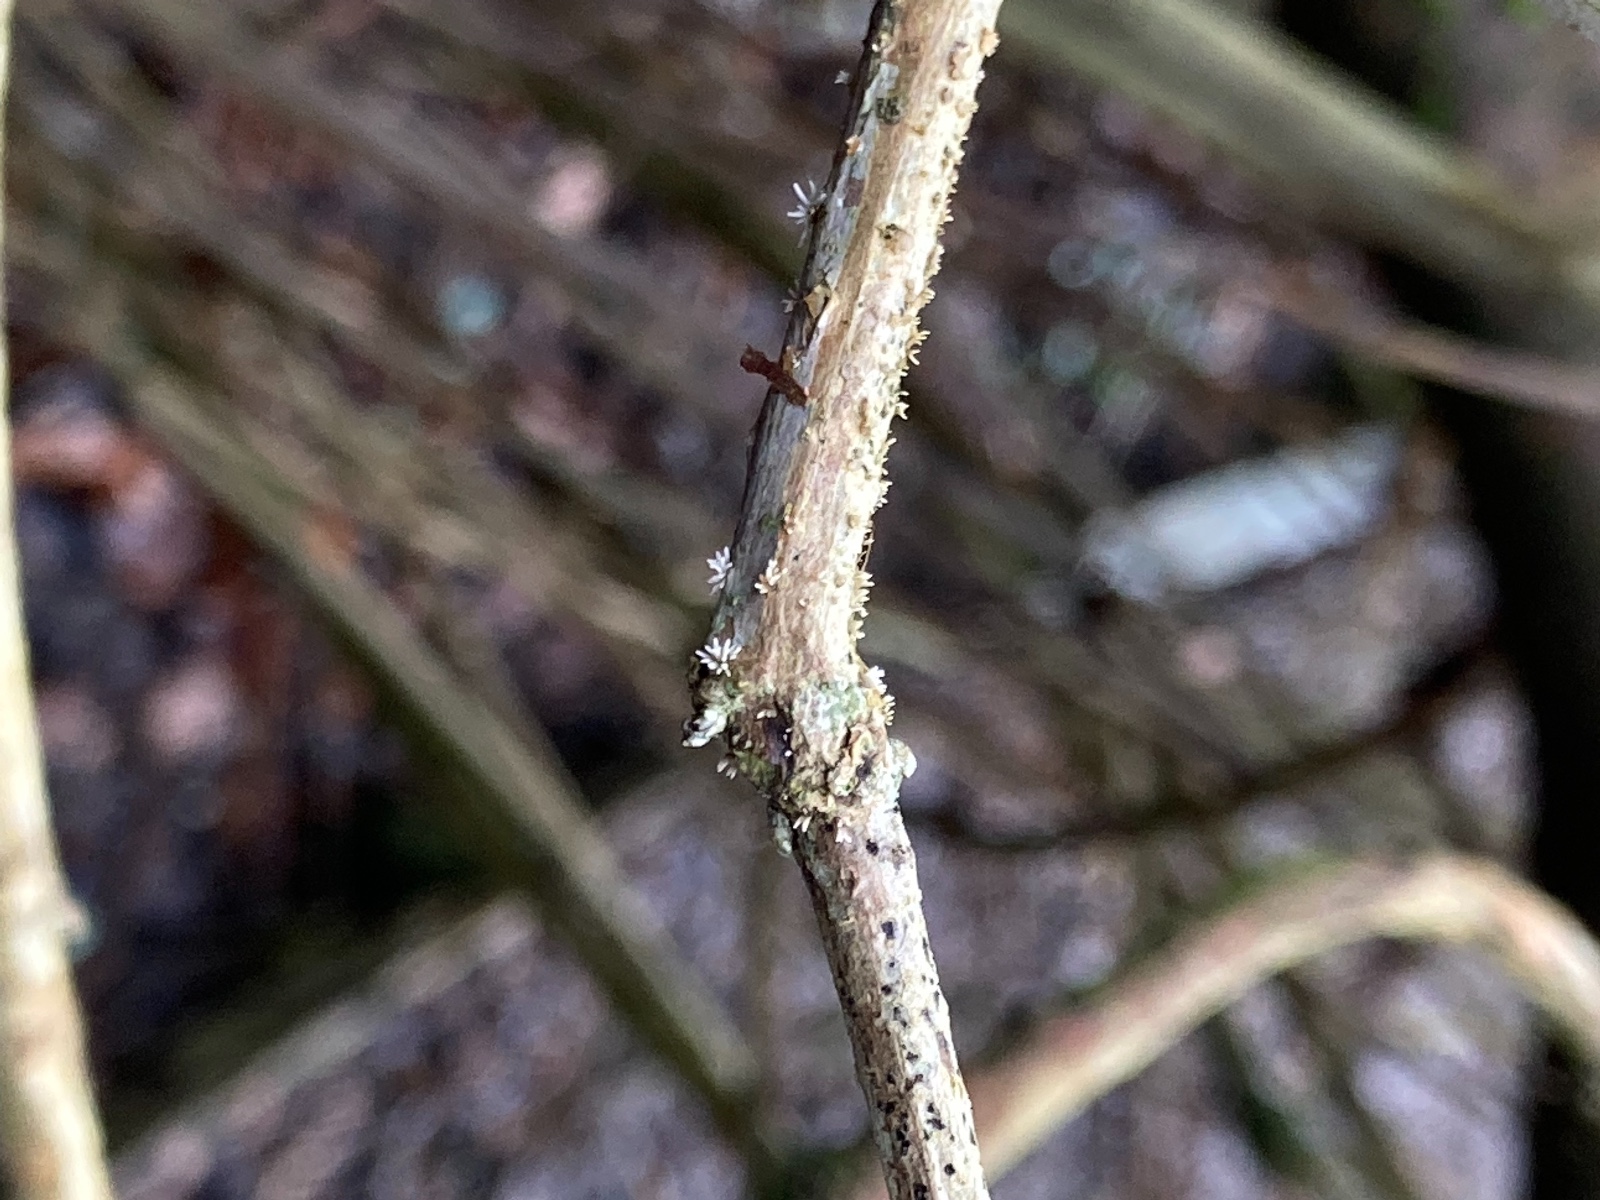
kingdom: Fungi
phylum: Ascomycota
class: Sordariomycetes
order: Hypocreales
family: Cordycipitaceae
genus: Isaria
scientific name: Isaria friesii
